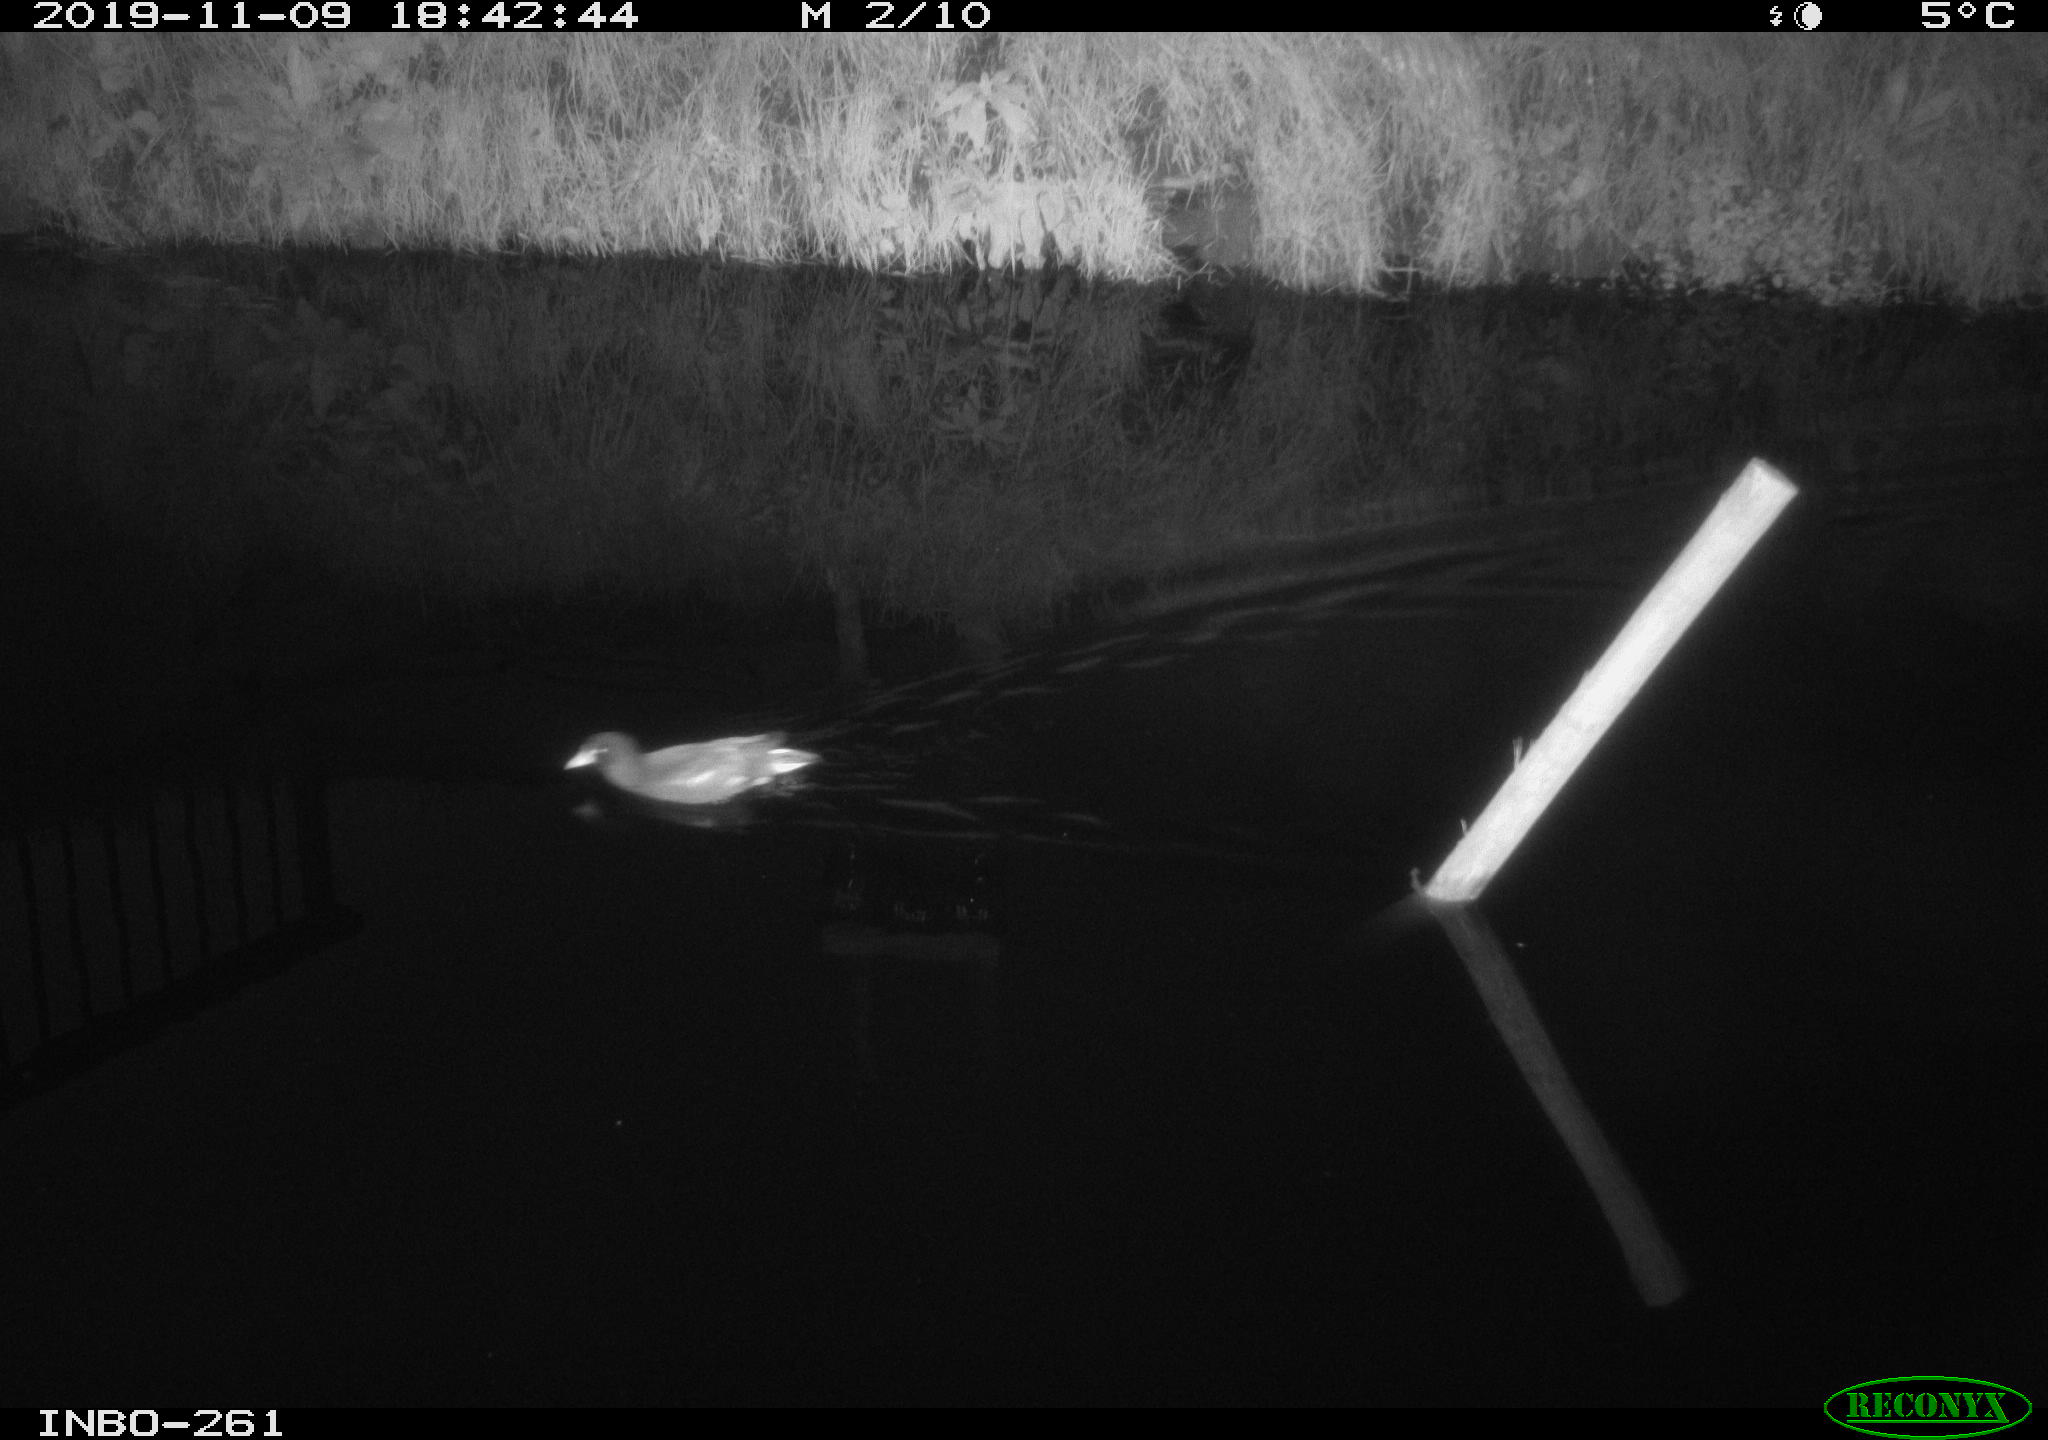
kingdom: Animalia
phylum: Chordata
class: Aves
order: Gruiformes
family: Rallidae
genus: Gallinula
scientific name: Gallinula chloropus
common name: Common moorhen
